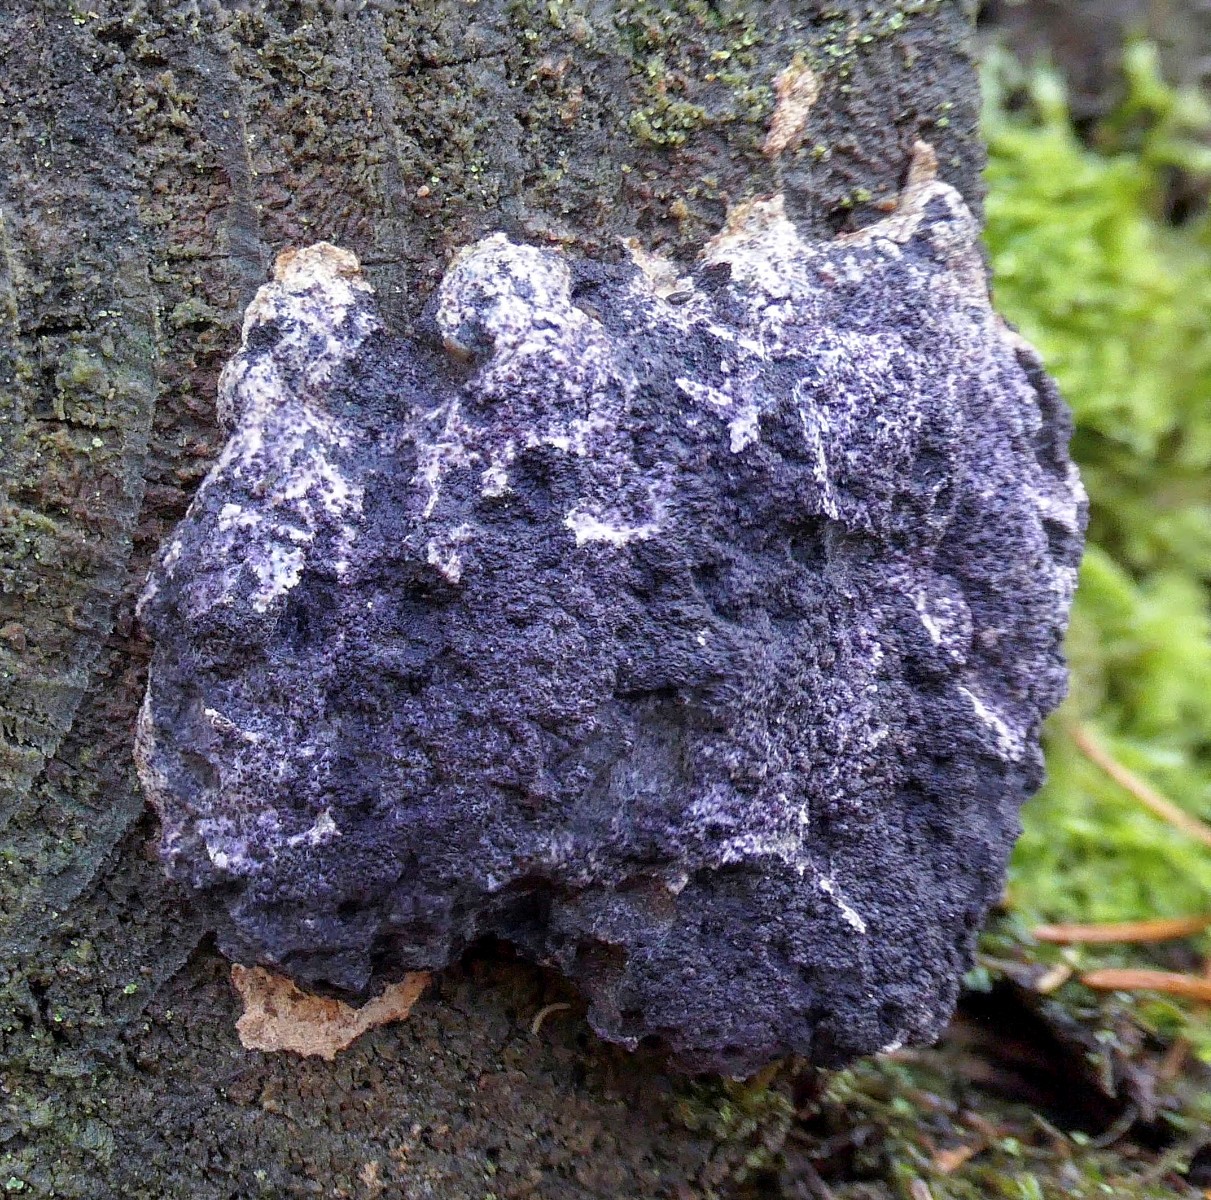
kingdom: Fungi
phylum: Ascomycota
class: Sordariomycetes
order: Hypocreales
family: Bionectriaceae
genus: Nectriopsis
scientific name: Nectriopsis violacea
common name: violet snyltespind
